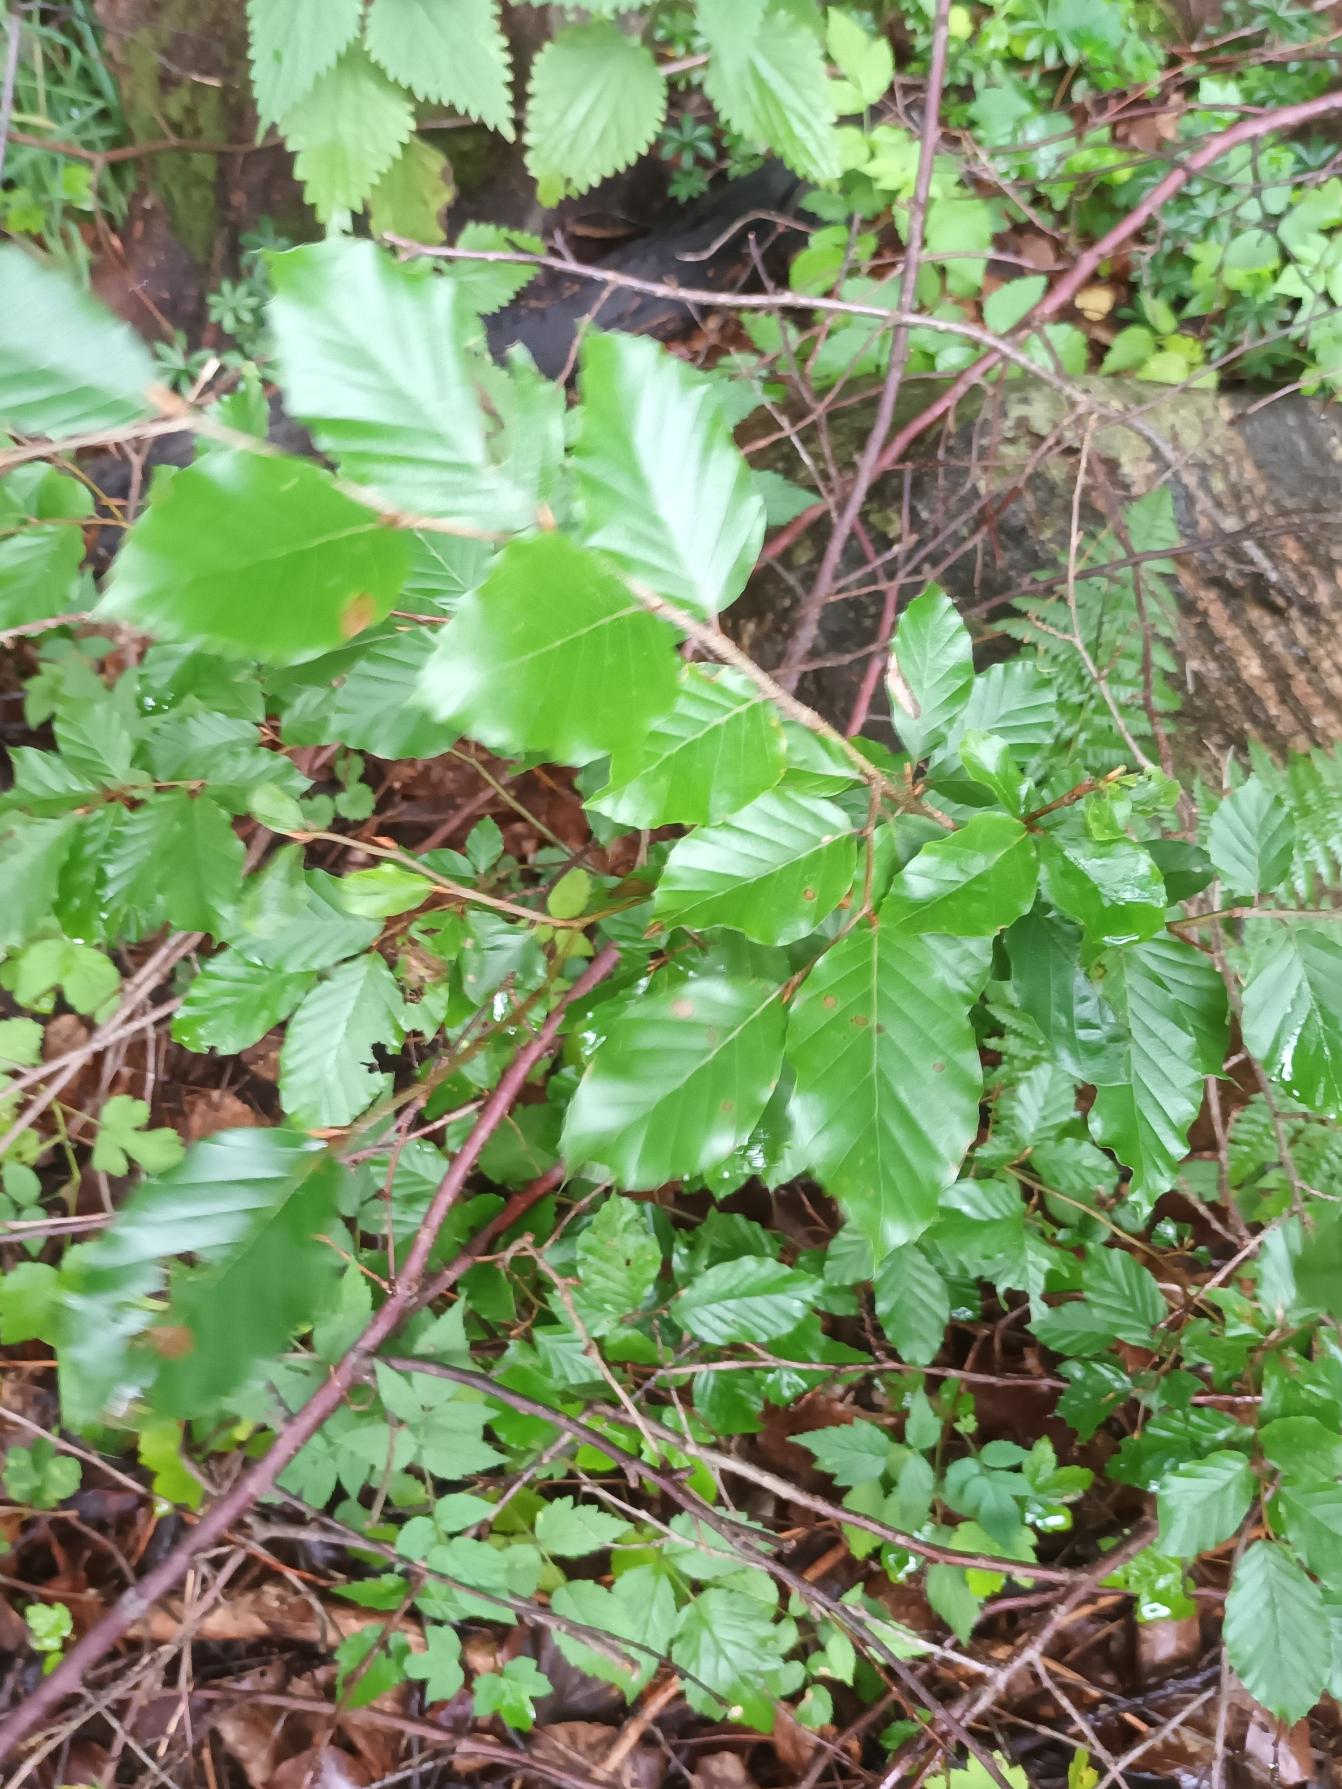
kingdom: Plantae
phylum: Tracheophyta
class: Magnoliopsida
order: Fagales
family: Fagaceae
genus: Fagus
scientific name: Fagus sylvatica
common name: Bøg
